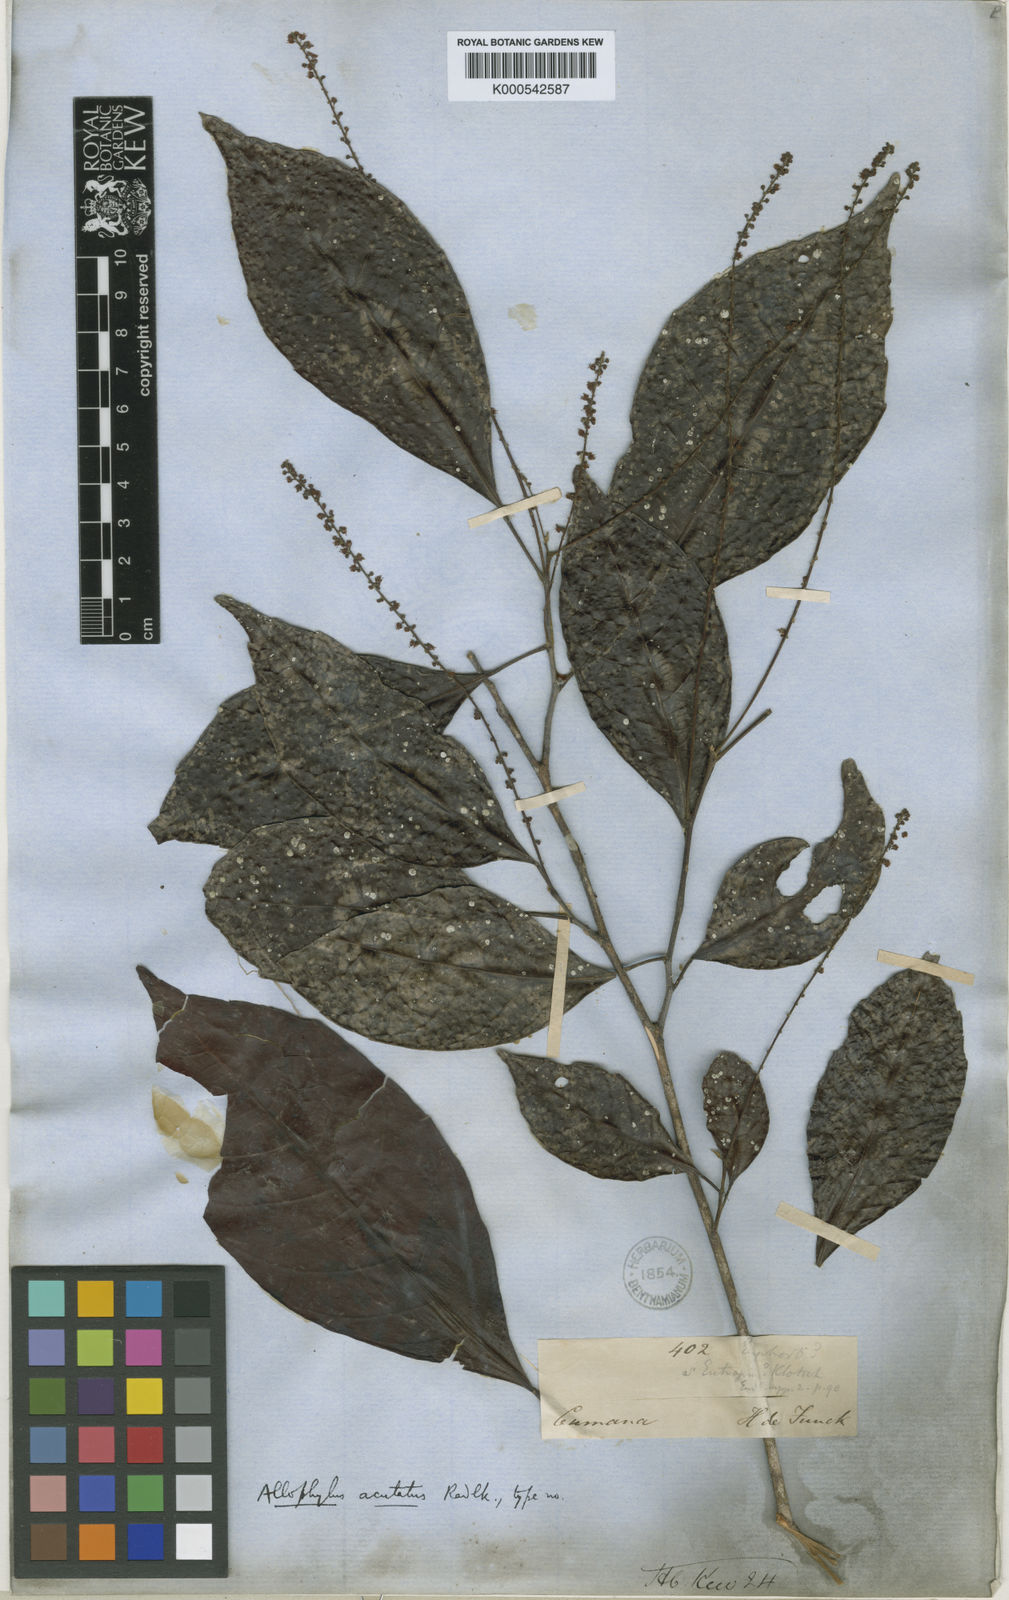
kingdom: Plantae
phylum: Tracheophyta
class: Magnoliopsida
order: Sapindales
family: Sapindaceae
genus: Allophylus
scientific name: Allophylus acutatus
